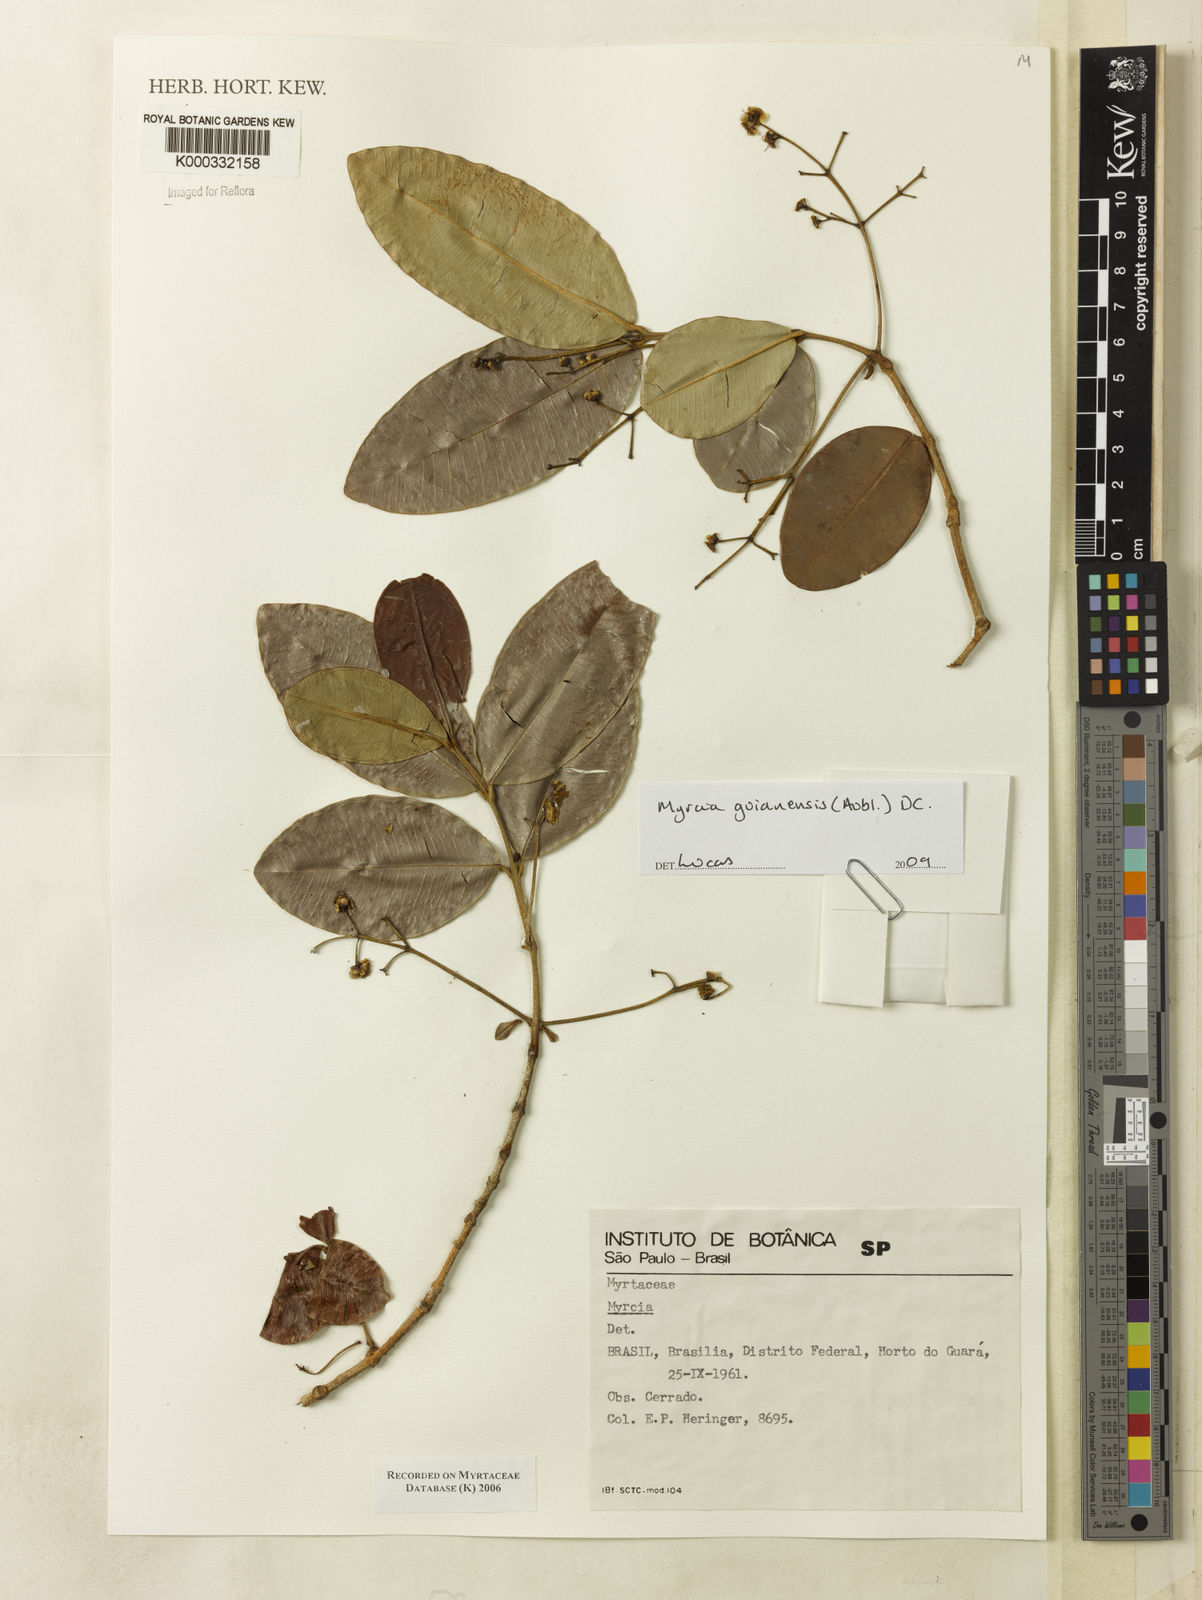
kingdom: Plantae
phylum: Tracheophyta
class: Magnoliopsida
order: Myrtales
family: Myrtaceae
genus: Myrcia
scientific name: Myrcia
